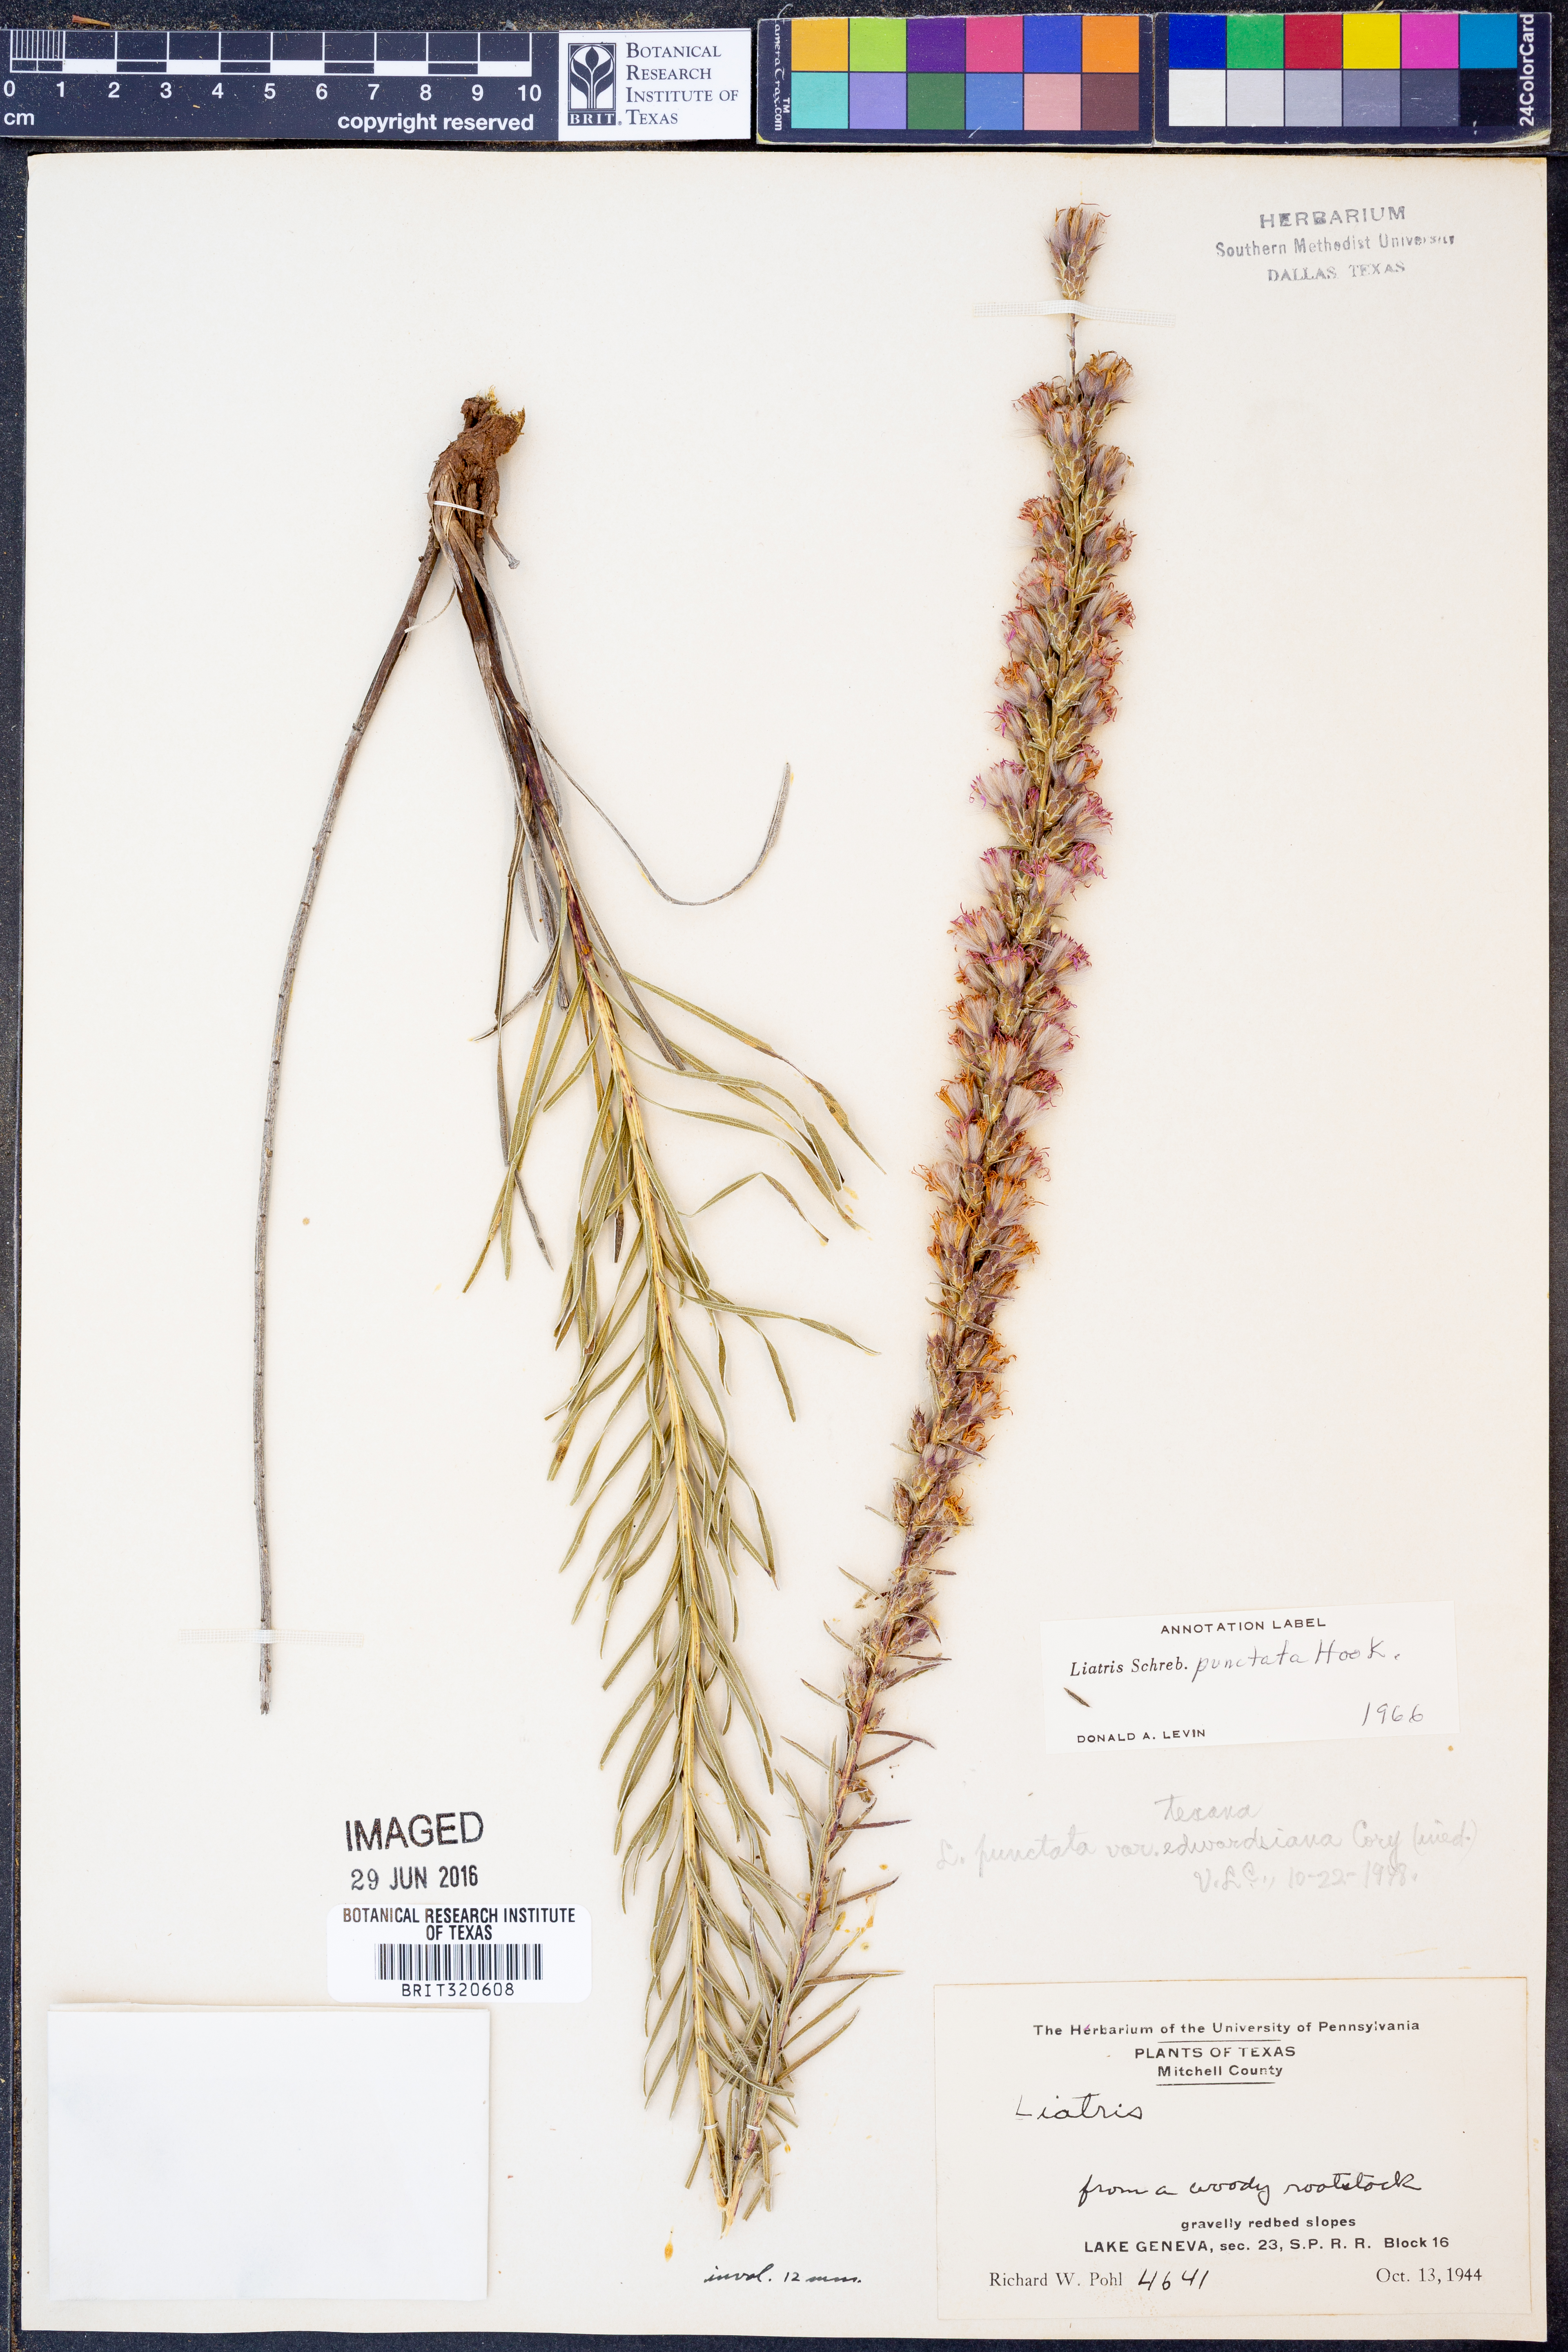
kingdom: Plantae
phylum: Tracheophyta
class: Magnoliopsida
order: Asterales
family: Asteraceae
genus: Liatris
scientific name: Liatris punctata
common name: Dotted gayfeather
